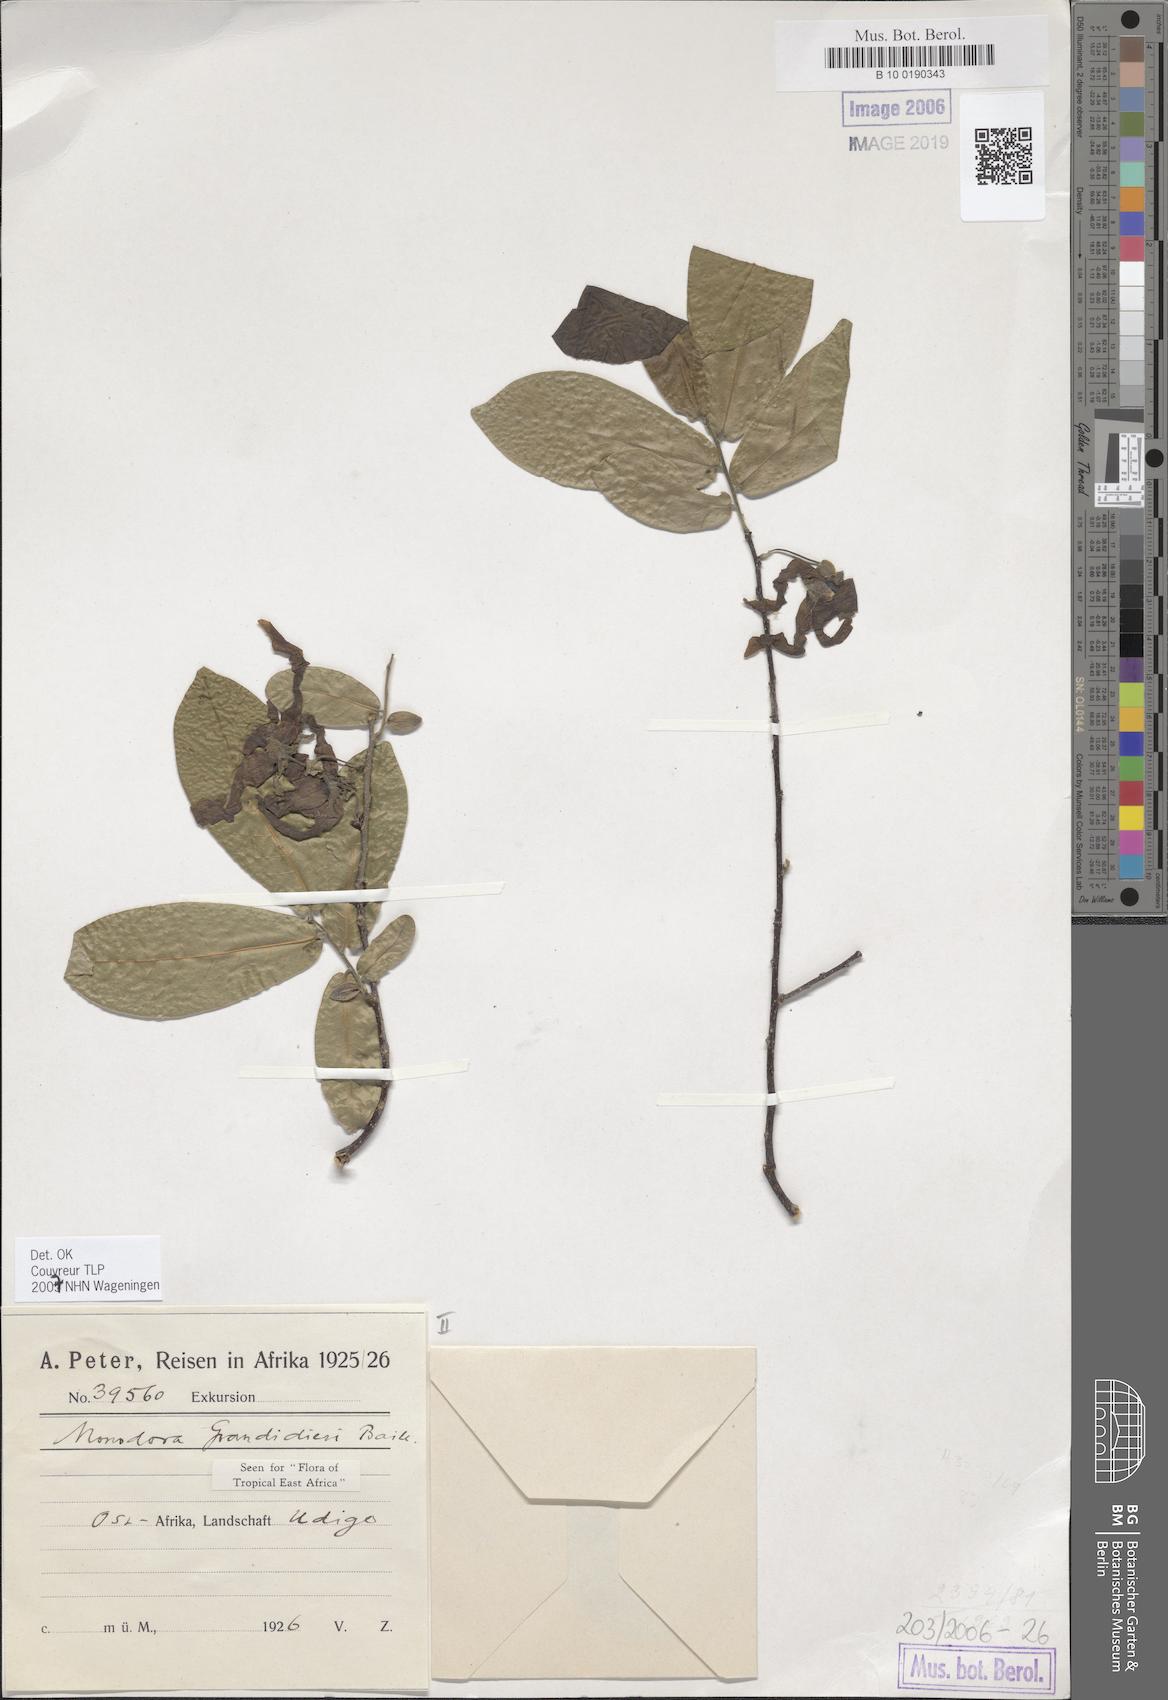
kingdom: Plantae
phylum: Tracheophyta
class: Magnoliopsida
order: Magnoliales
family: Annonaceae
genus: Monodora
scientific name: Monodora grandidieri
